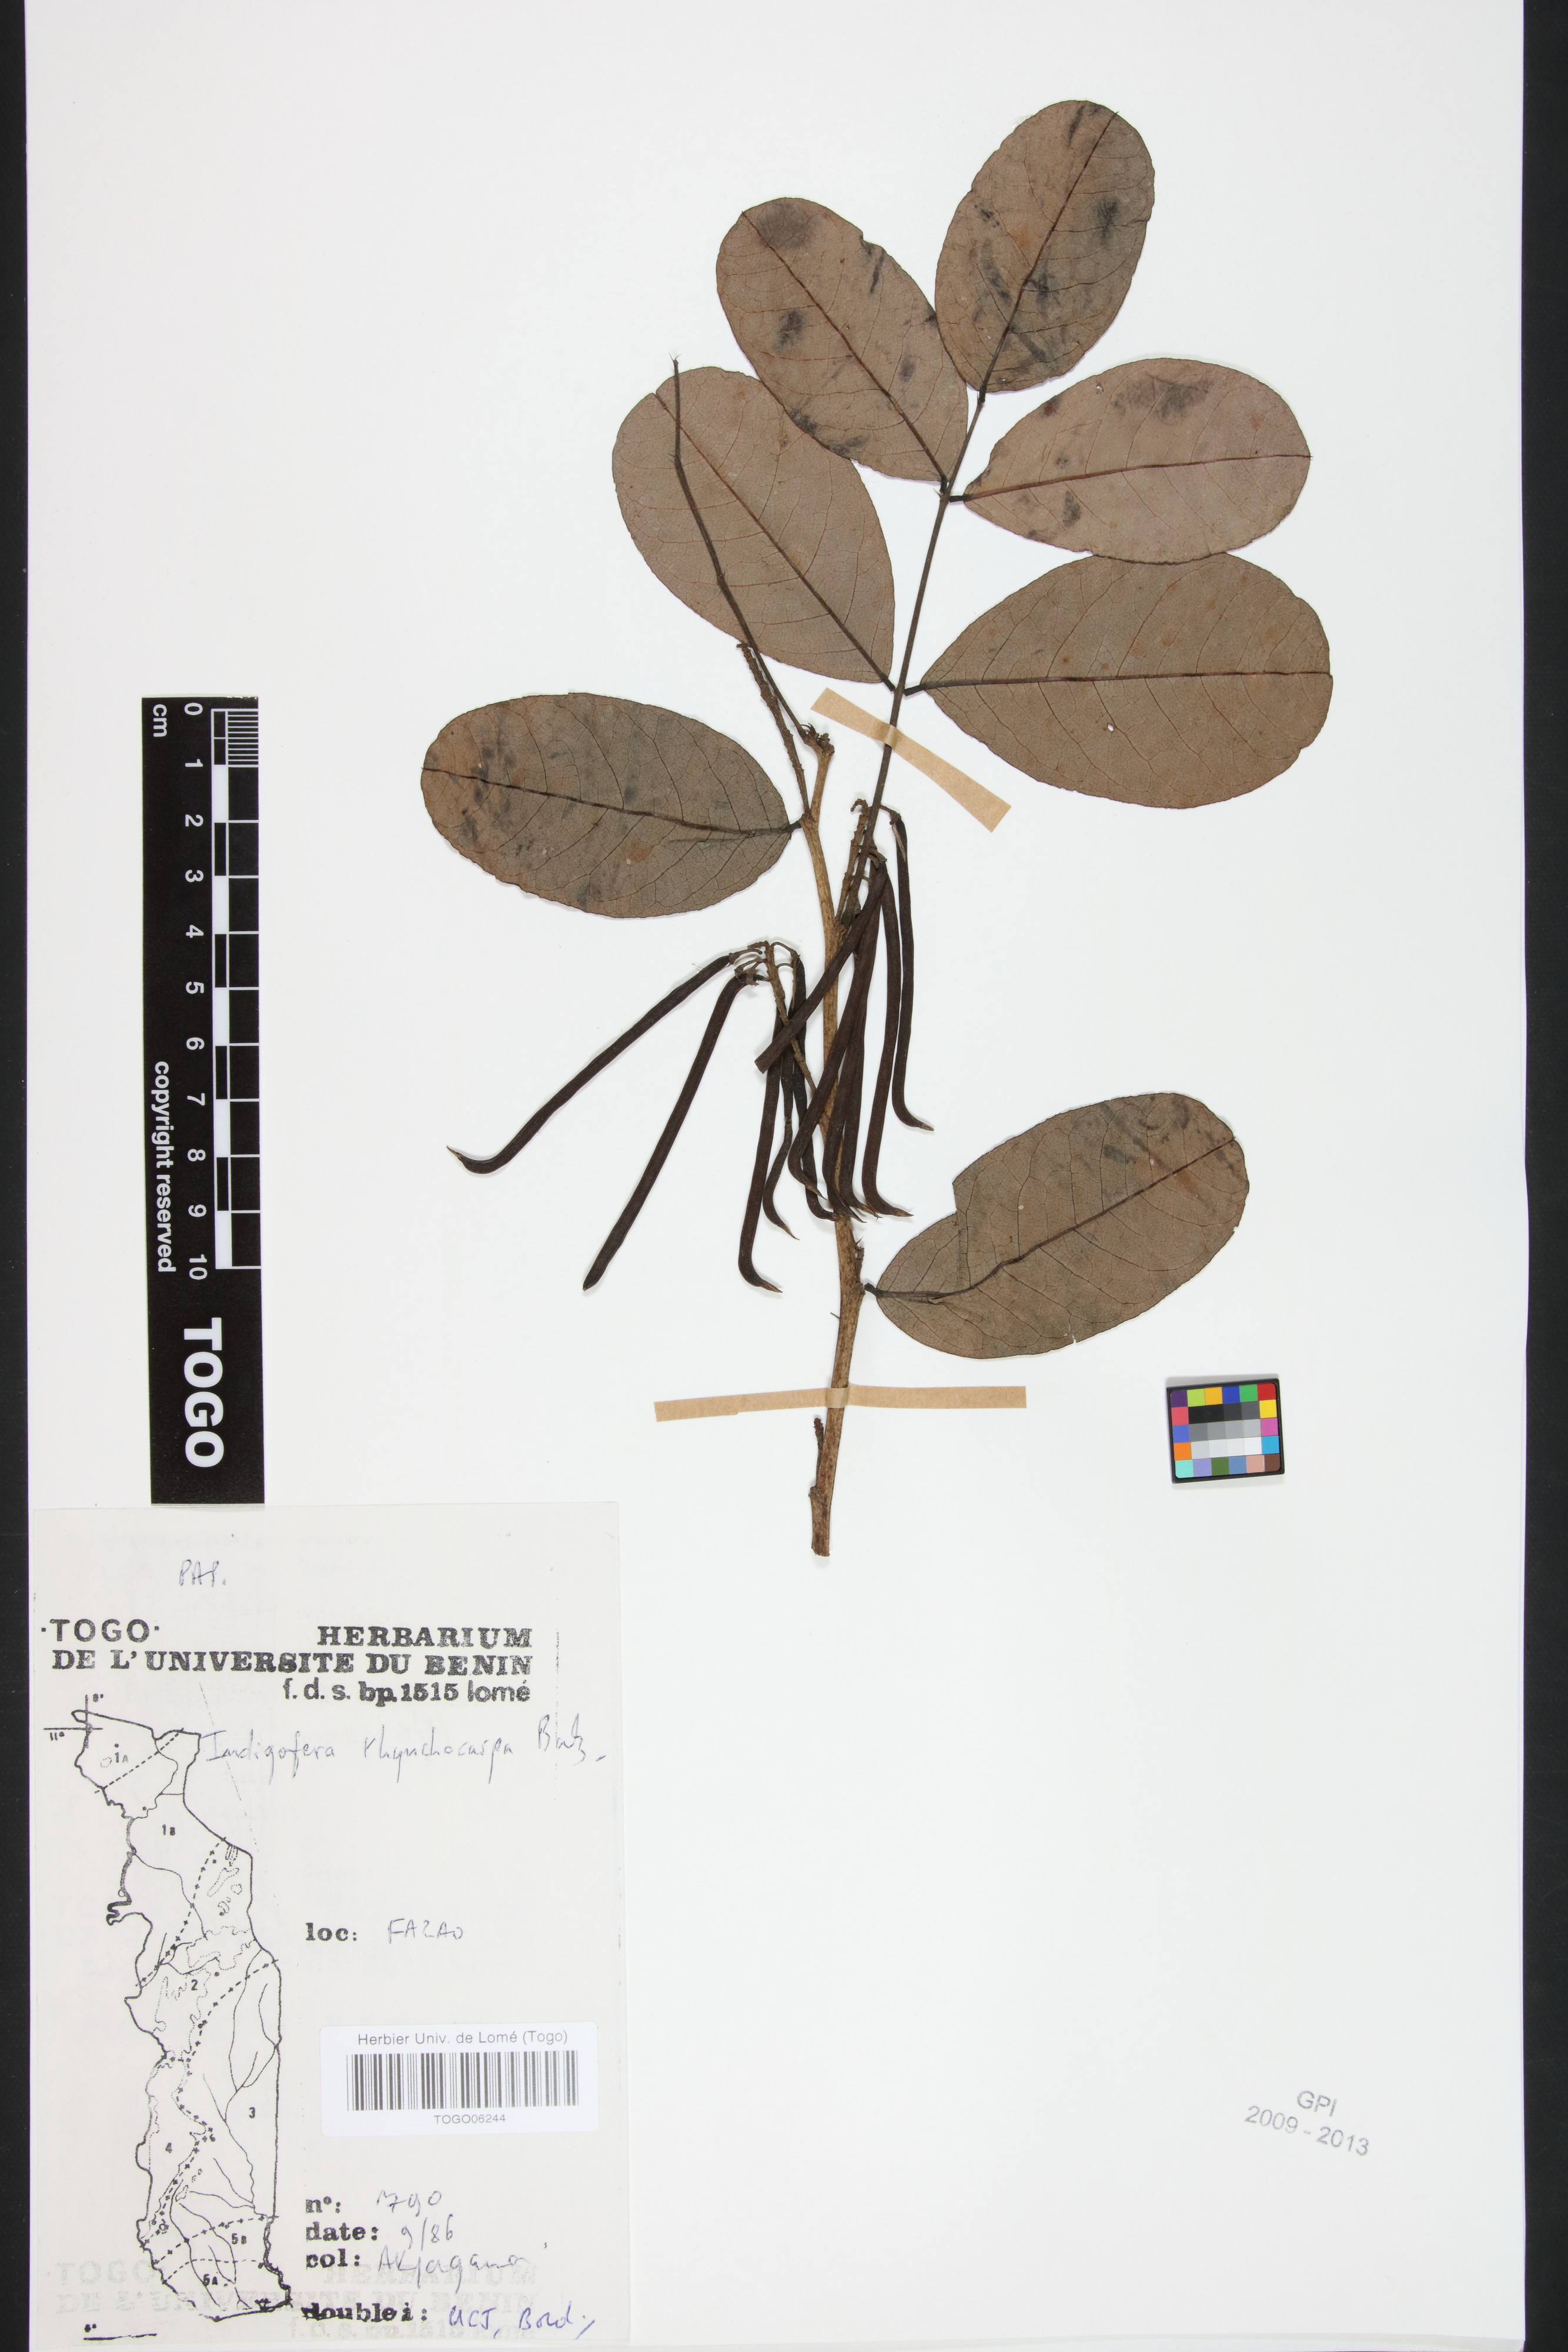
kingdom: Plantae
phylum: Tracheophyta
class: Magnoliopsida
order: Fabales
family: Fabaceae
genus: Indigofera
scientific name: Indigofera rhynchocarpa
